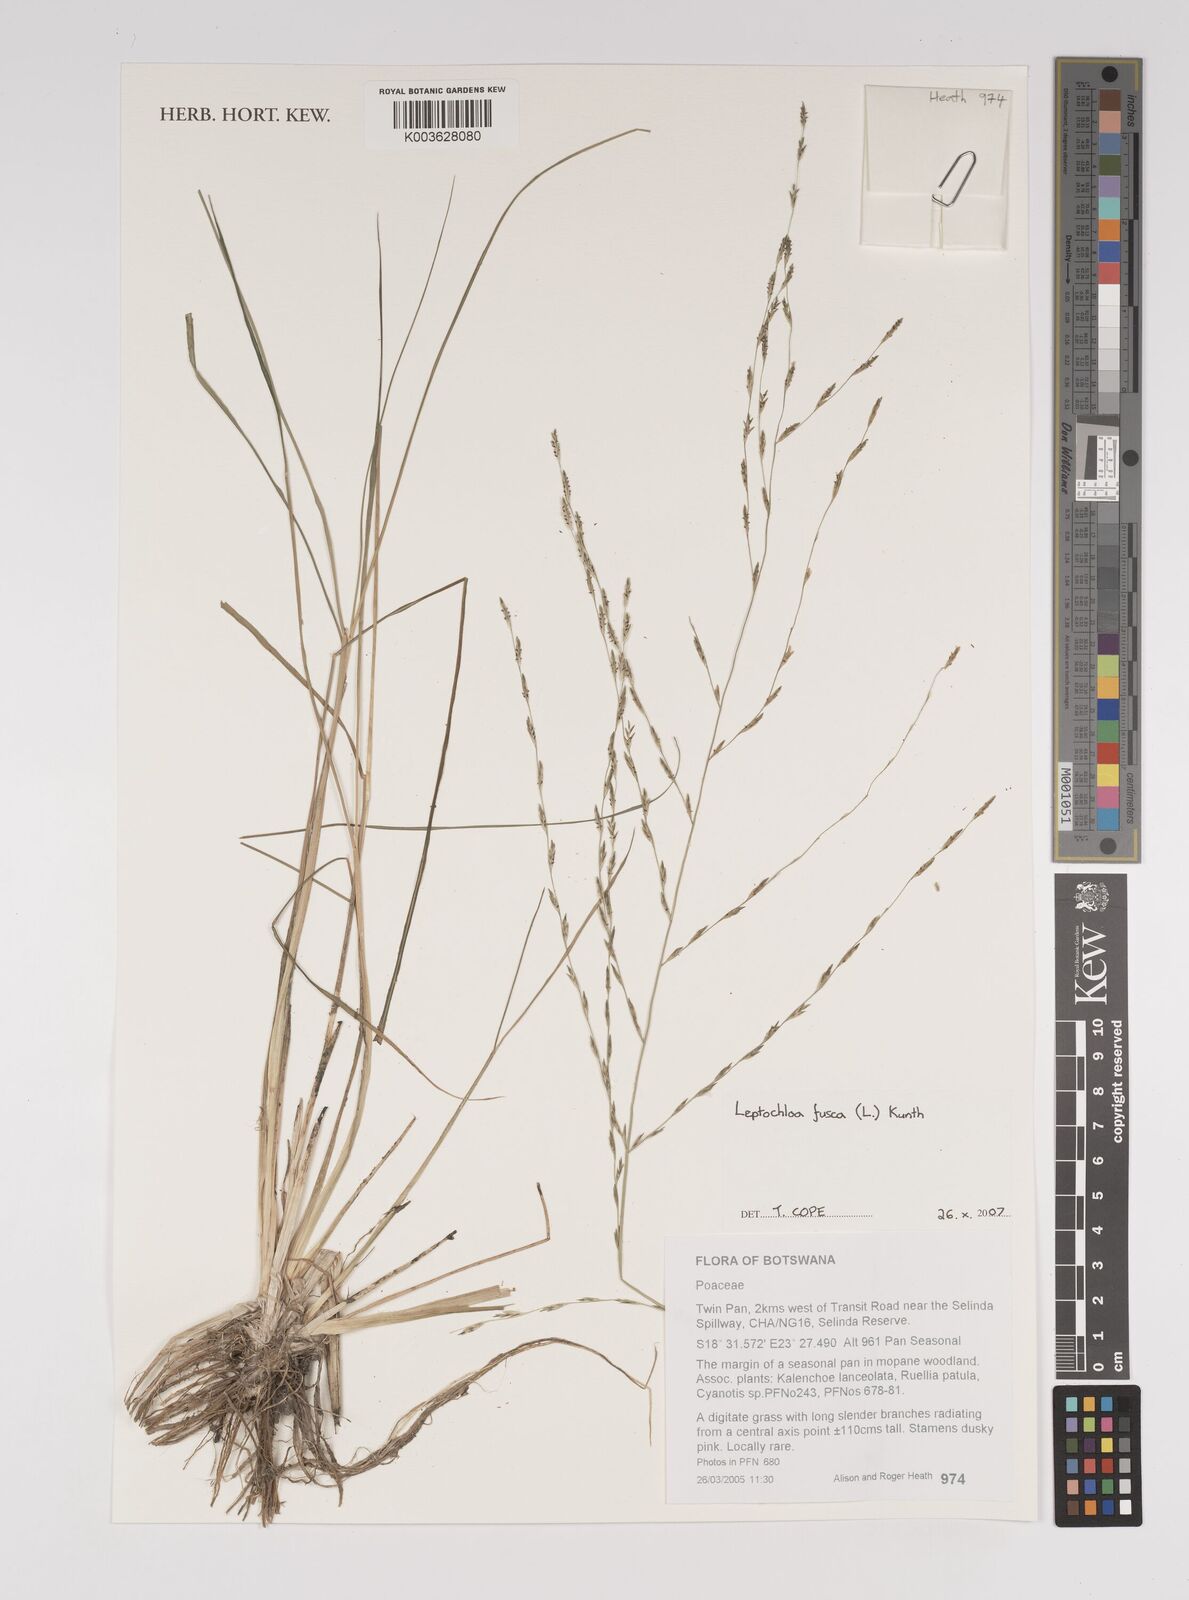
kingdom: Plantae
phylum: Tracheophyta
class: Liliopsida
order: Poales
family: Poaceae
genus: Diplachne
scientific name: Diplachne fusca
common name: Brown beetle grass
